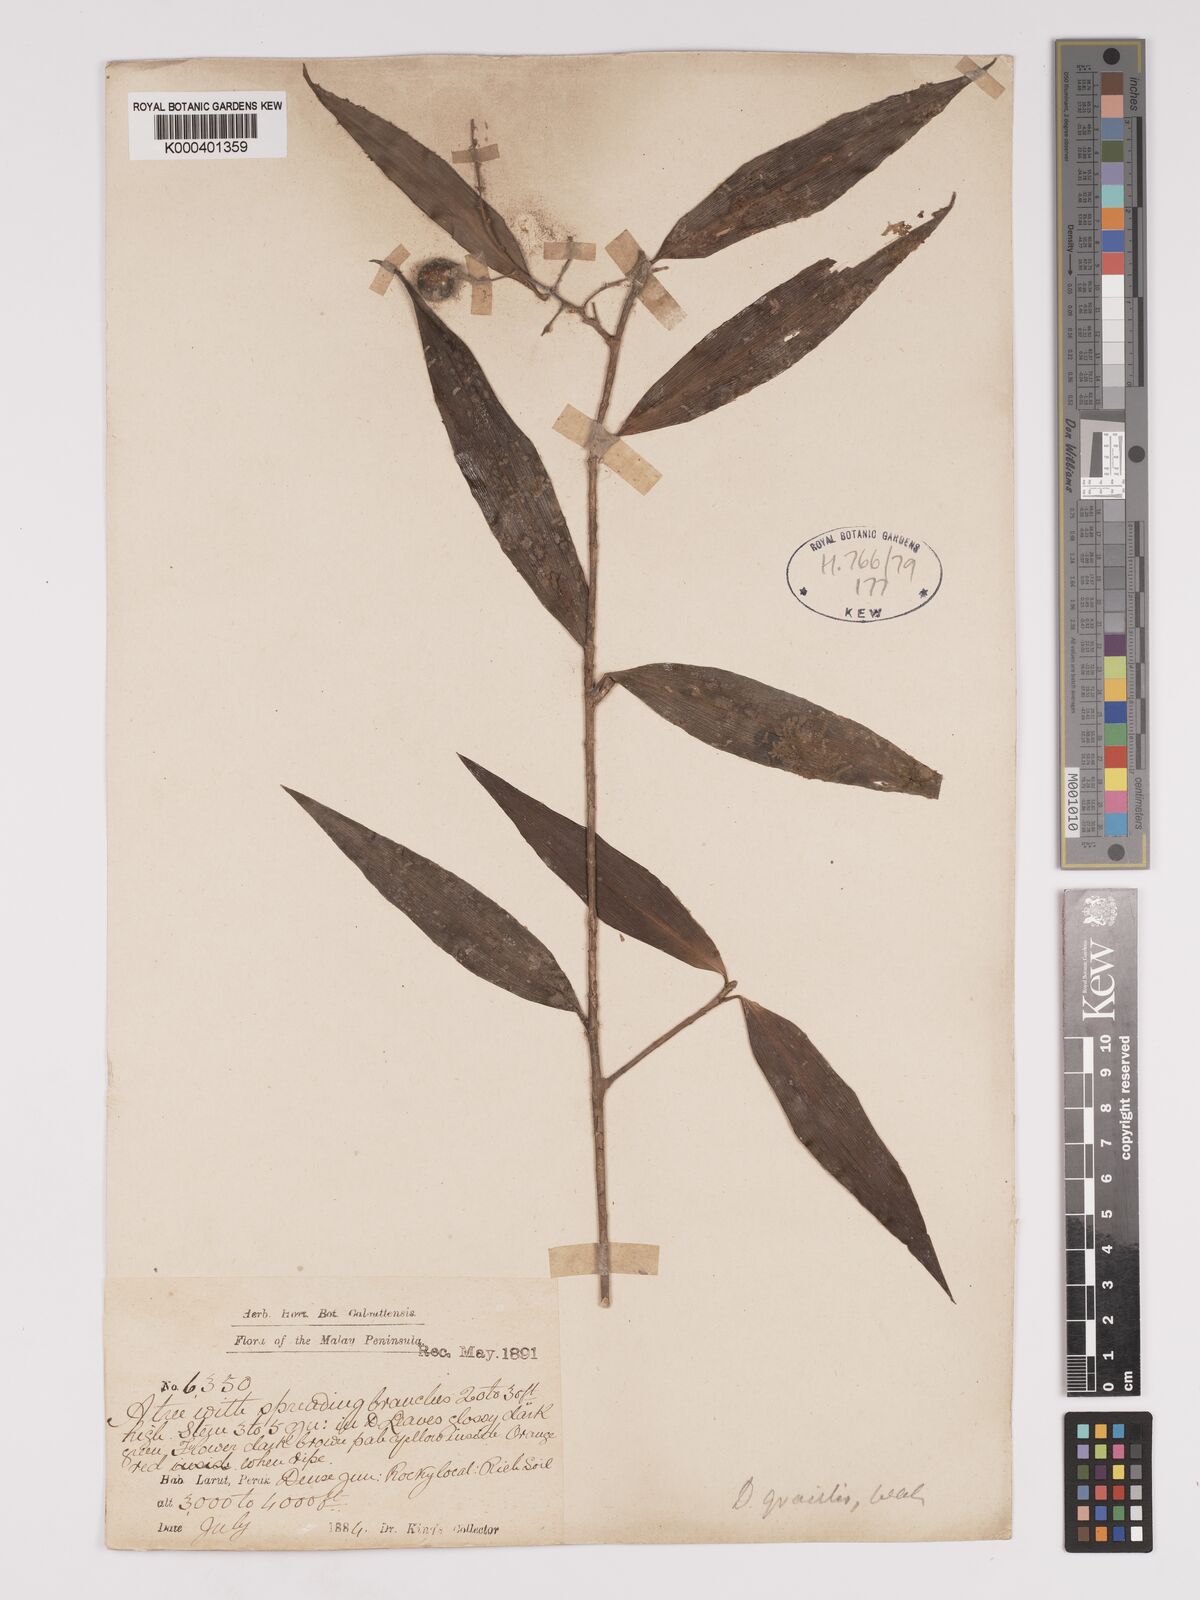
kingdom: Plantae
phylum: Tracheophyta
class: Liliopsida
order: Asparagales
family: Asparagaceae
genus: Dracaena
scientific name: Dracaena elliptica
